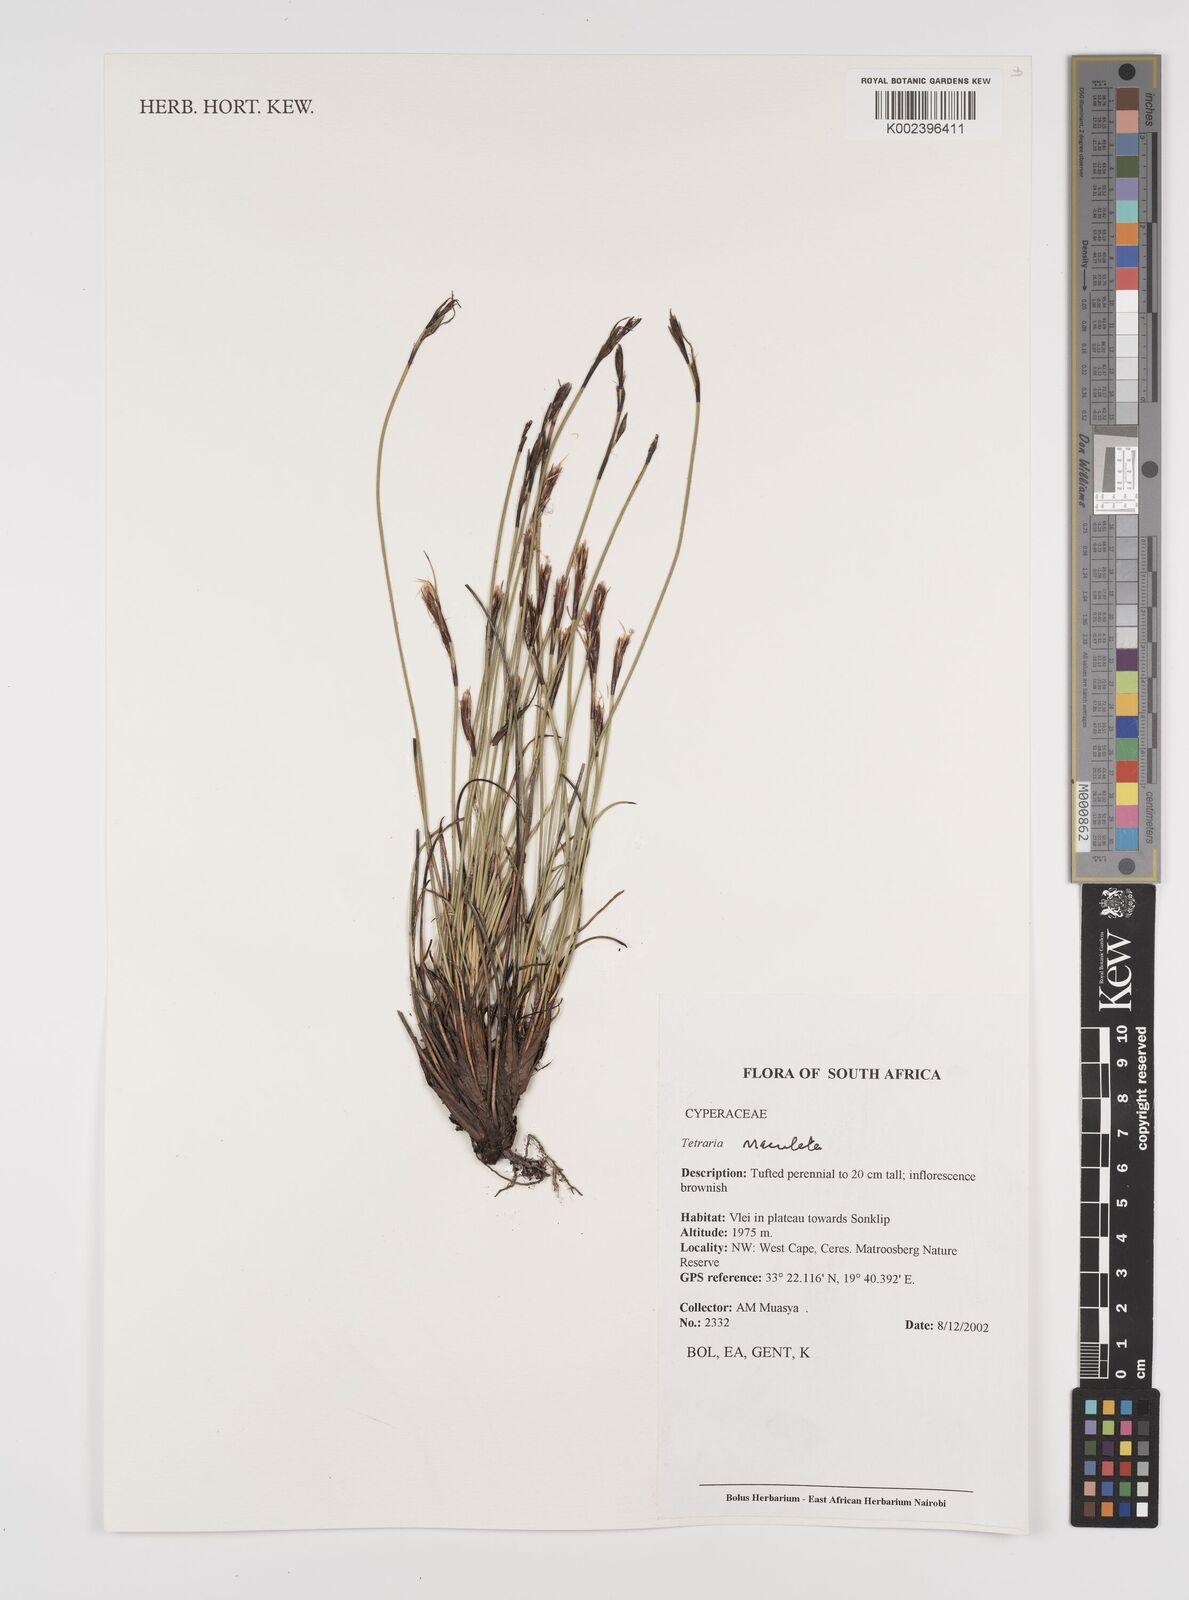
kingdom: Plantae
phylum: Tracheophyta
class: Liliopsida
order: Poales
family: Cyperaceae
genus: Tetraria
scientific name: Tetraria
